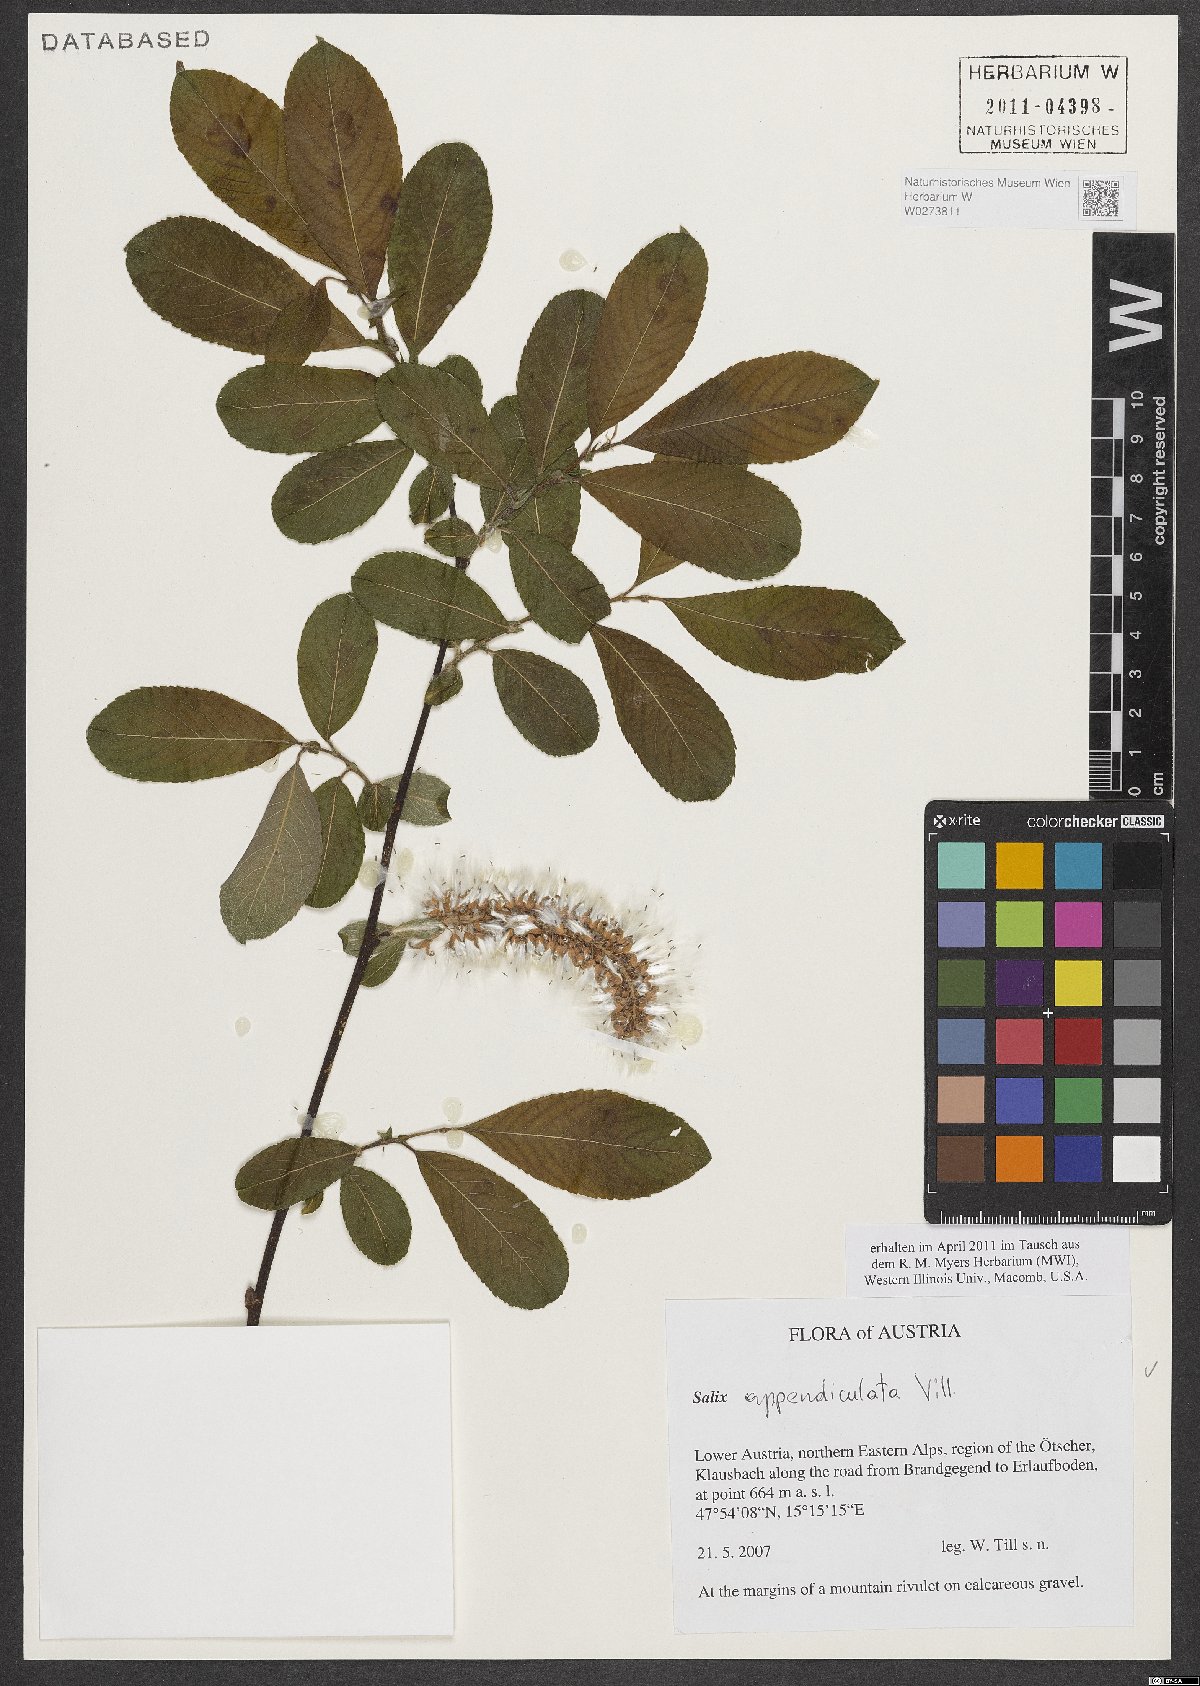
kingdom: Plantae
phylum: Tracheophyta
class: Magnoliopsida
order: Malpighiales
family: Salicaceae
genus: Salix
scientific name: Salix appendiculata
